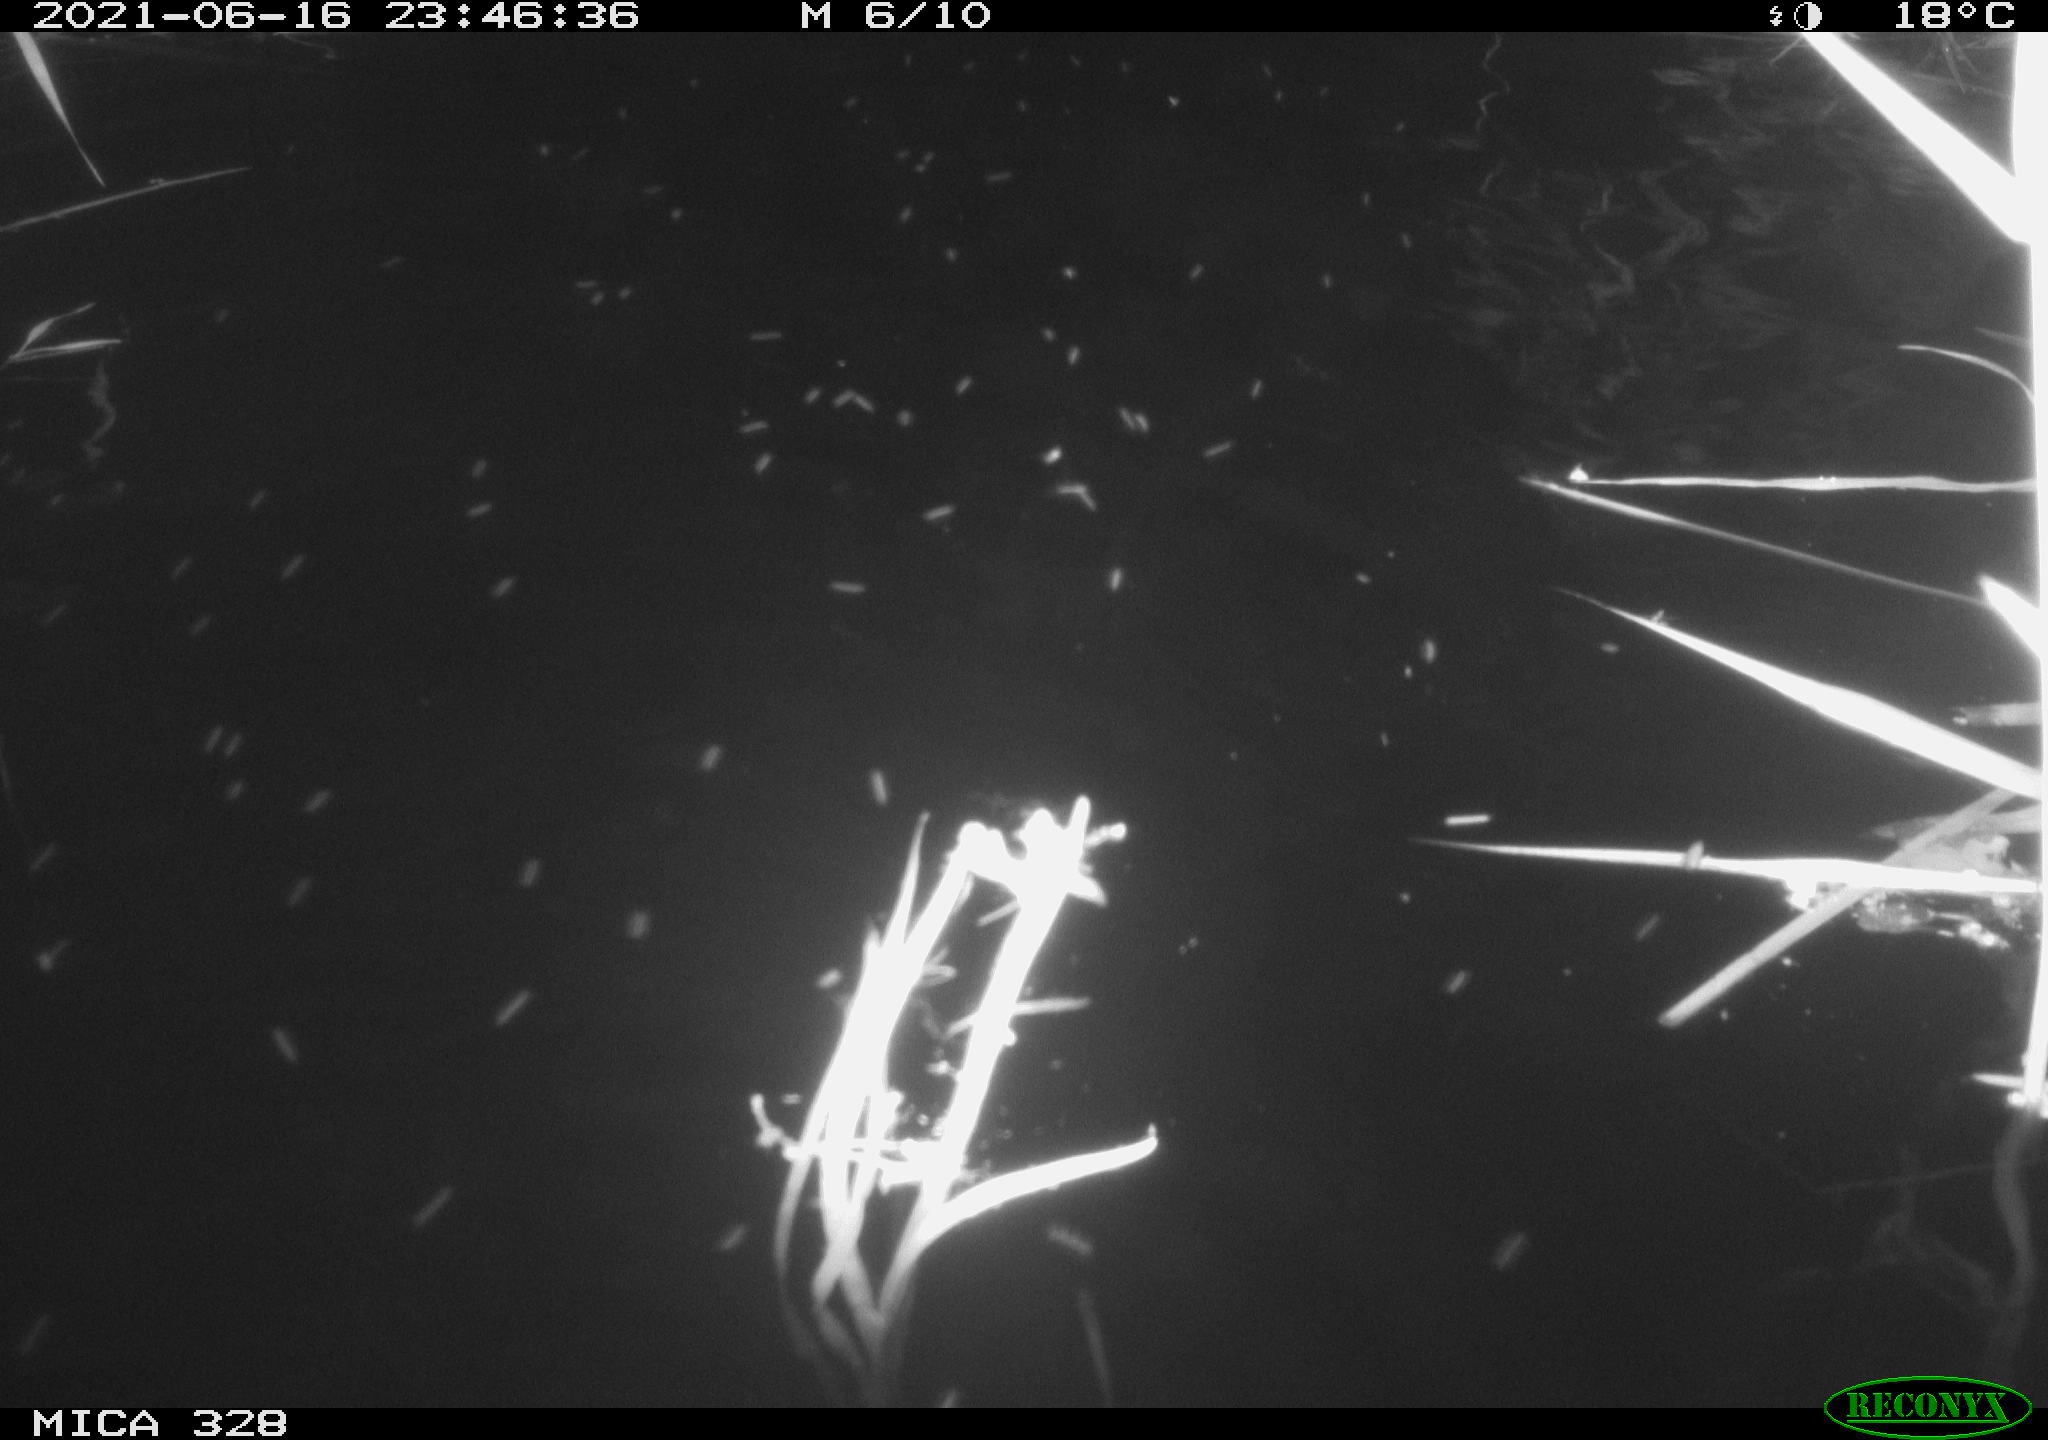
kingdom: Animalia
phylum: Chordata
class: Mammalia
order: Rodentia
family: Cricetidae
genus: Ondatra
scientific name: Ondatra zibethicus
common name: Muskrat
